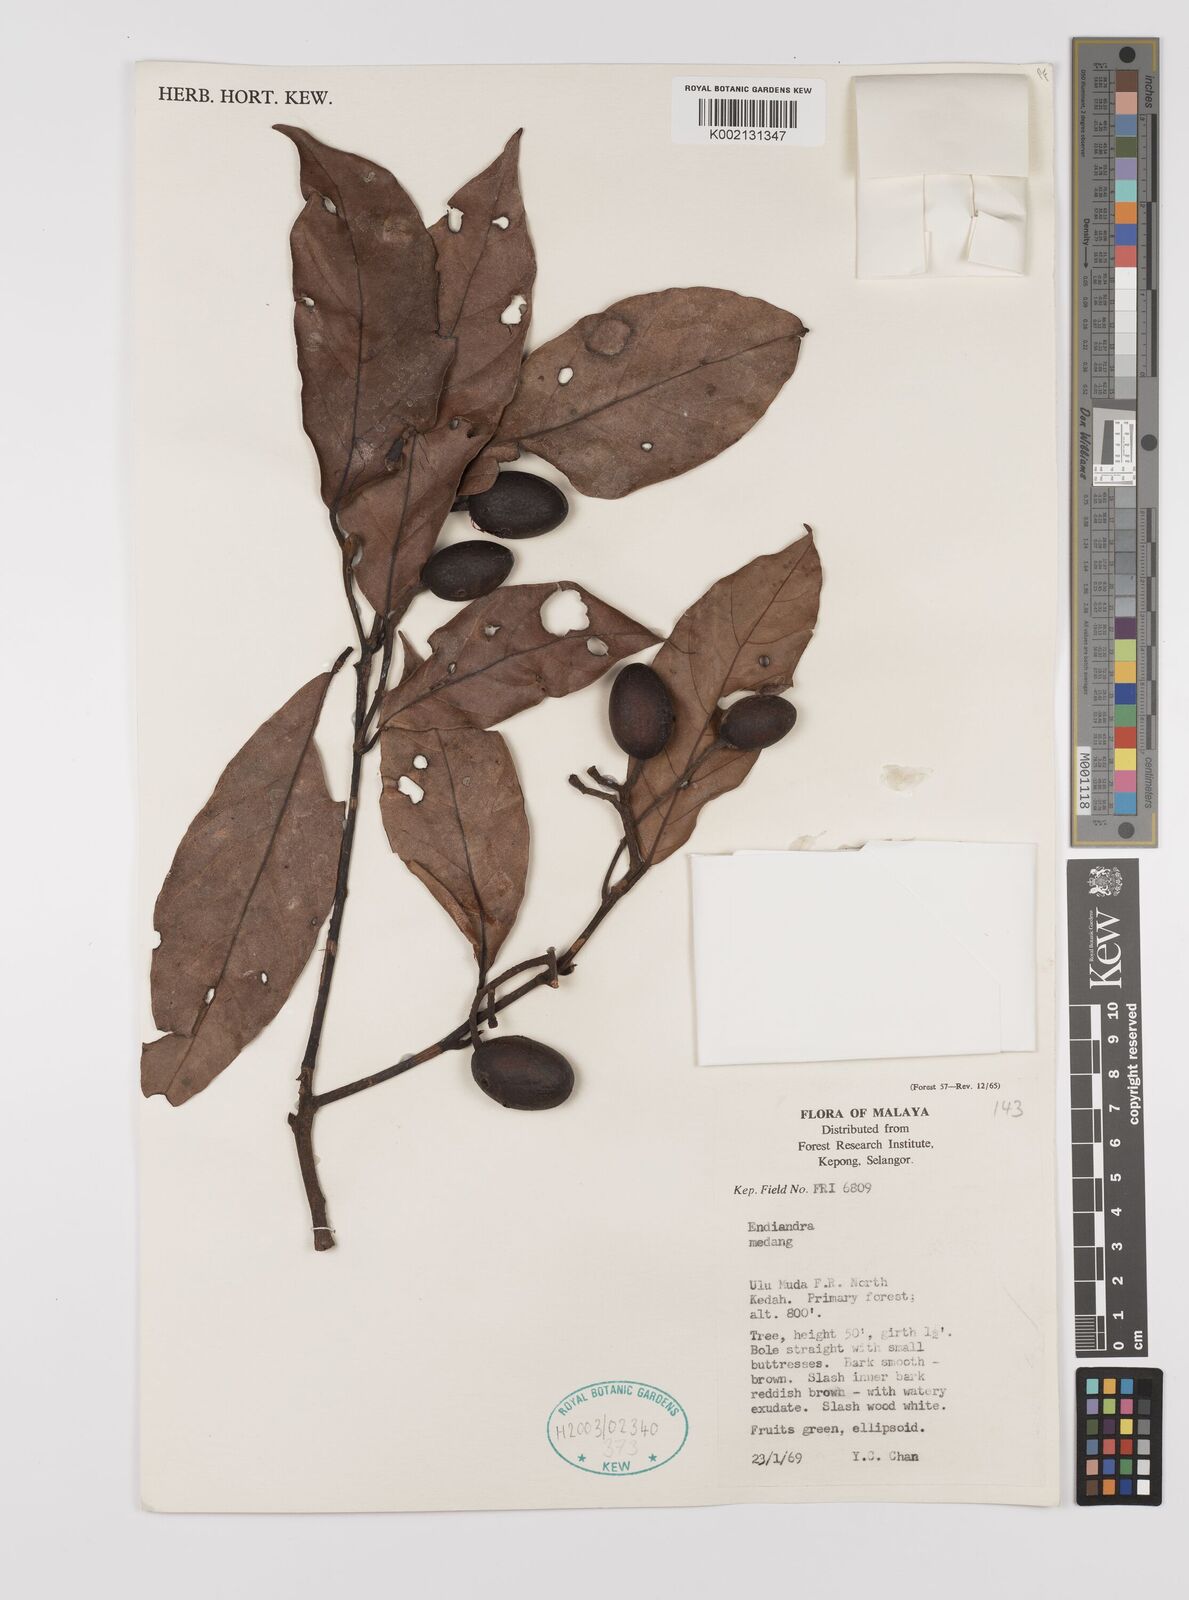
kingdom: Plantae
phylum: Tracheophyta
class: Magnoliopsida
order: Laurales
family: Lauraceae
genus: Endiandra
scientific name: Endiandra
